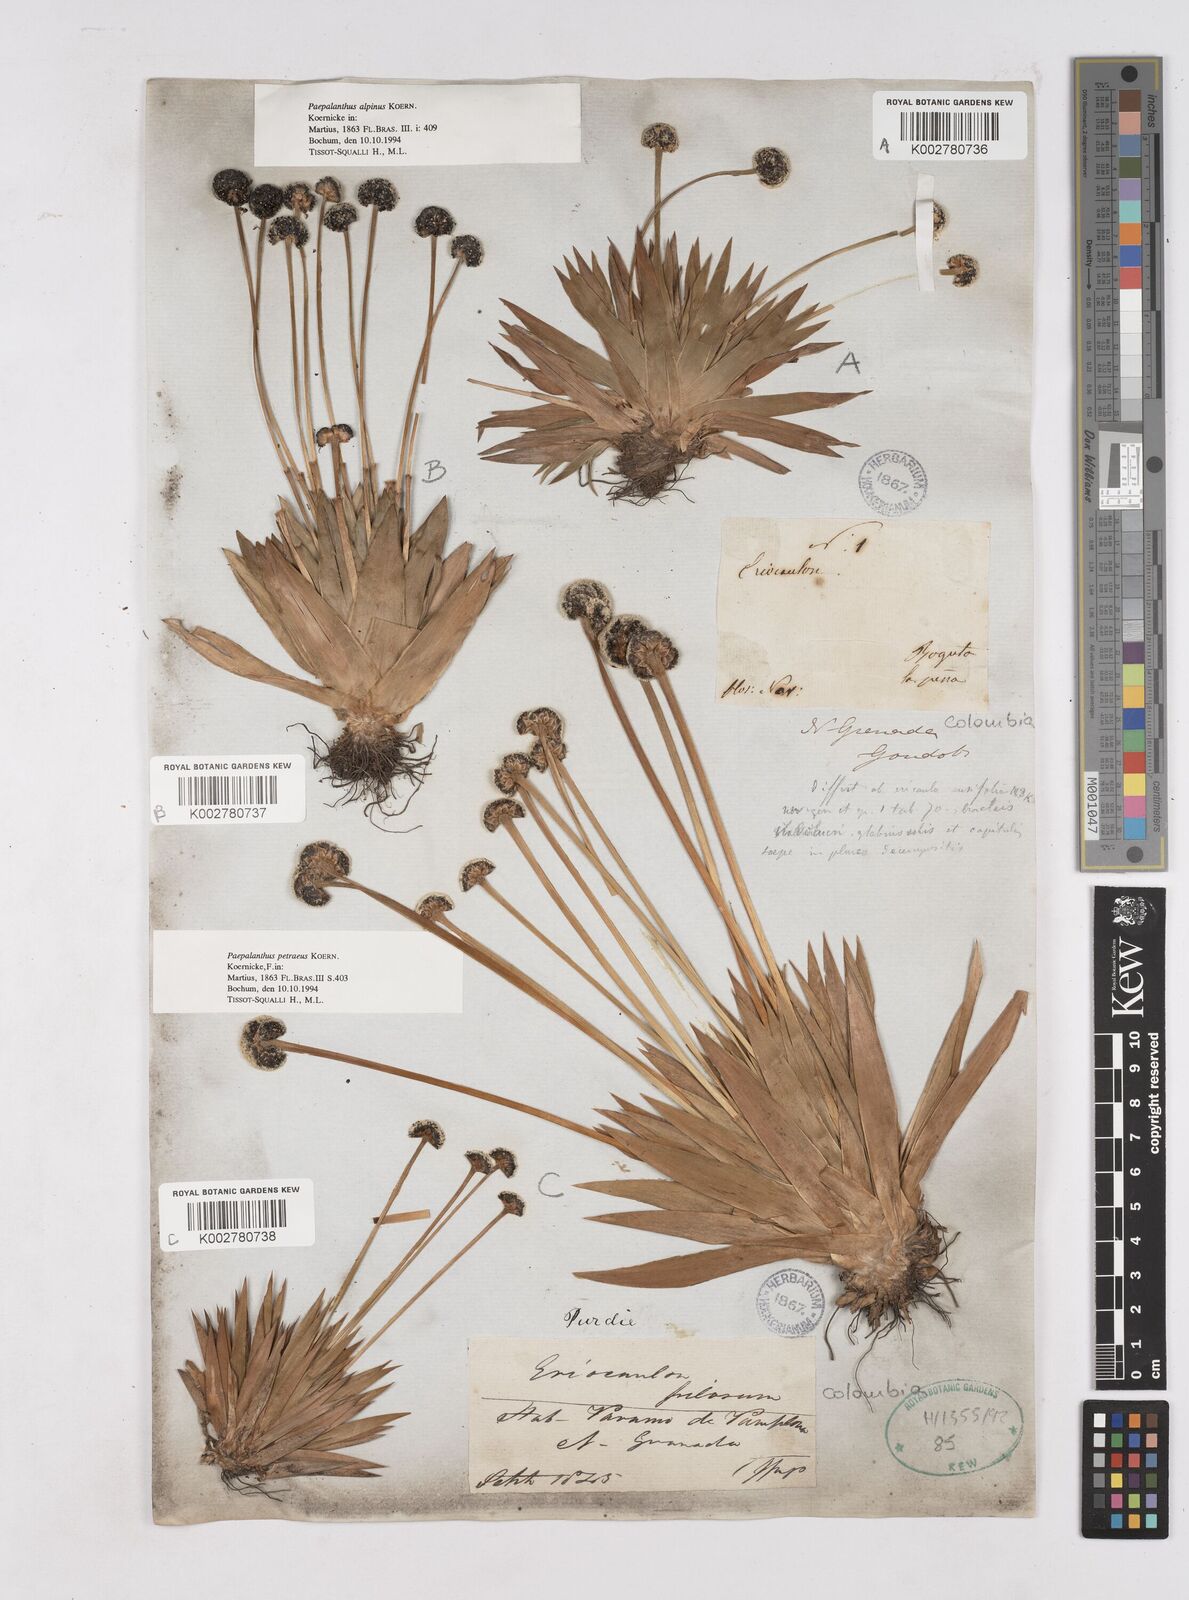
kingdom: Plantae
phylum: Tracheophyta
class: Liliopsida
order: Poales
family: Eriocaulaceae
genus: Paepalanthus
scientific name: Paepalanthus petraeus
